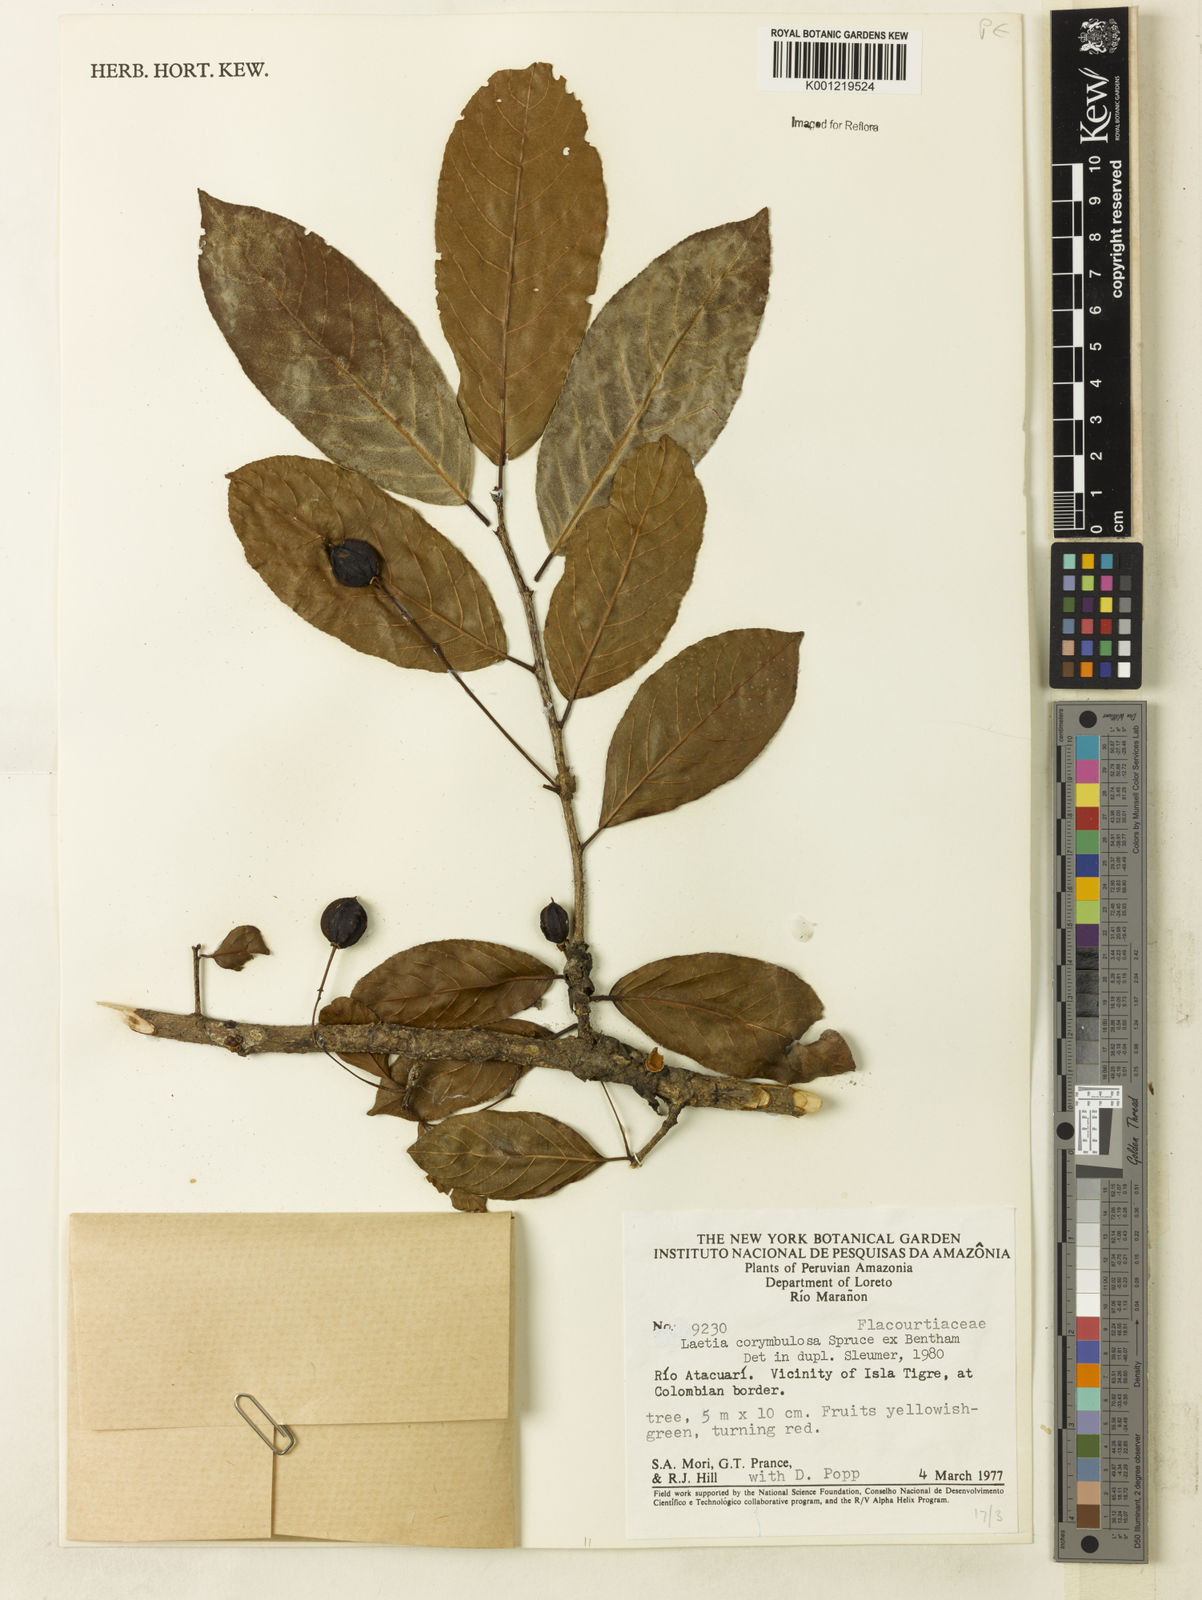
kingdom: Plantae
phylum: Tracheophyta
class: Magnoliopsida
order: Malpighiales
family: Salicaceae
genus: Casearia
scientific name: Casearia corymbulosa
